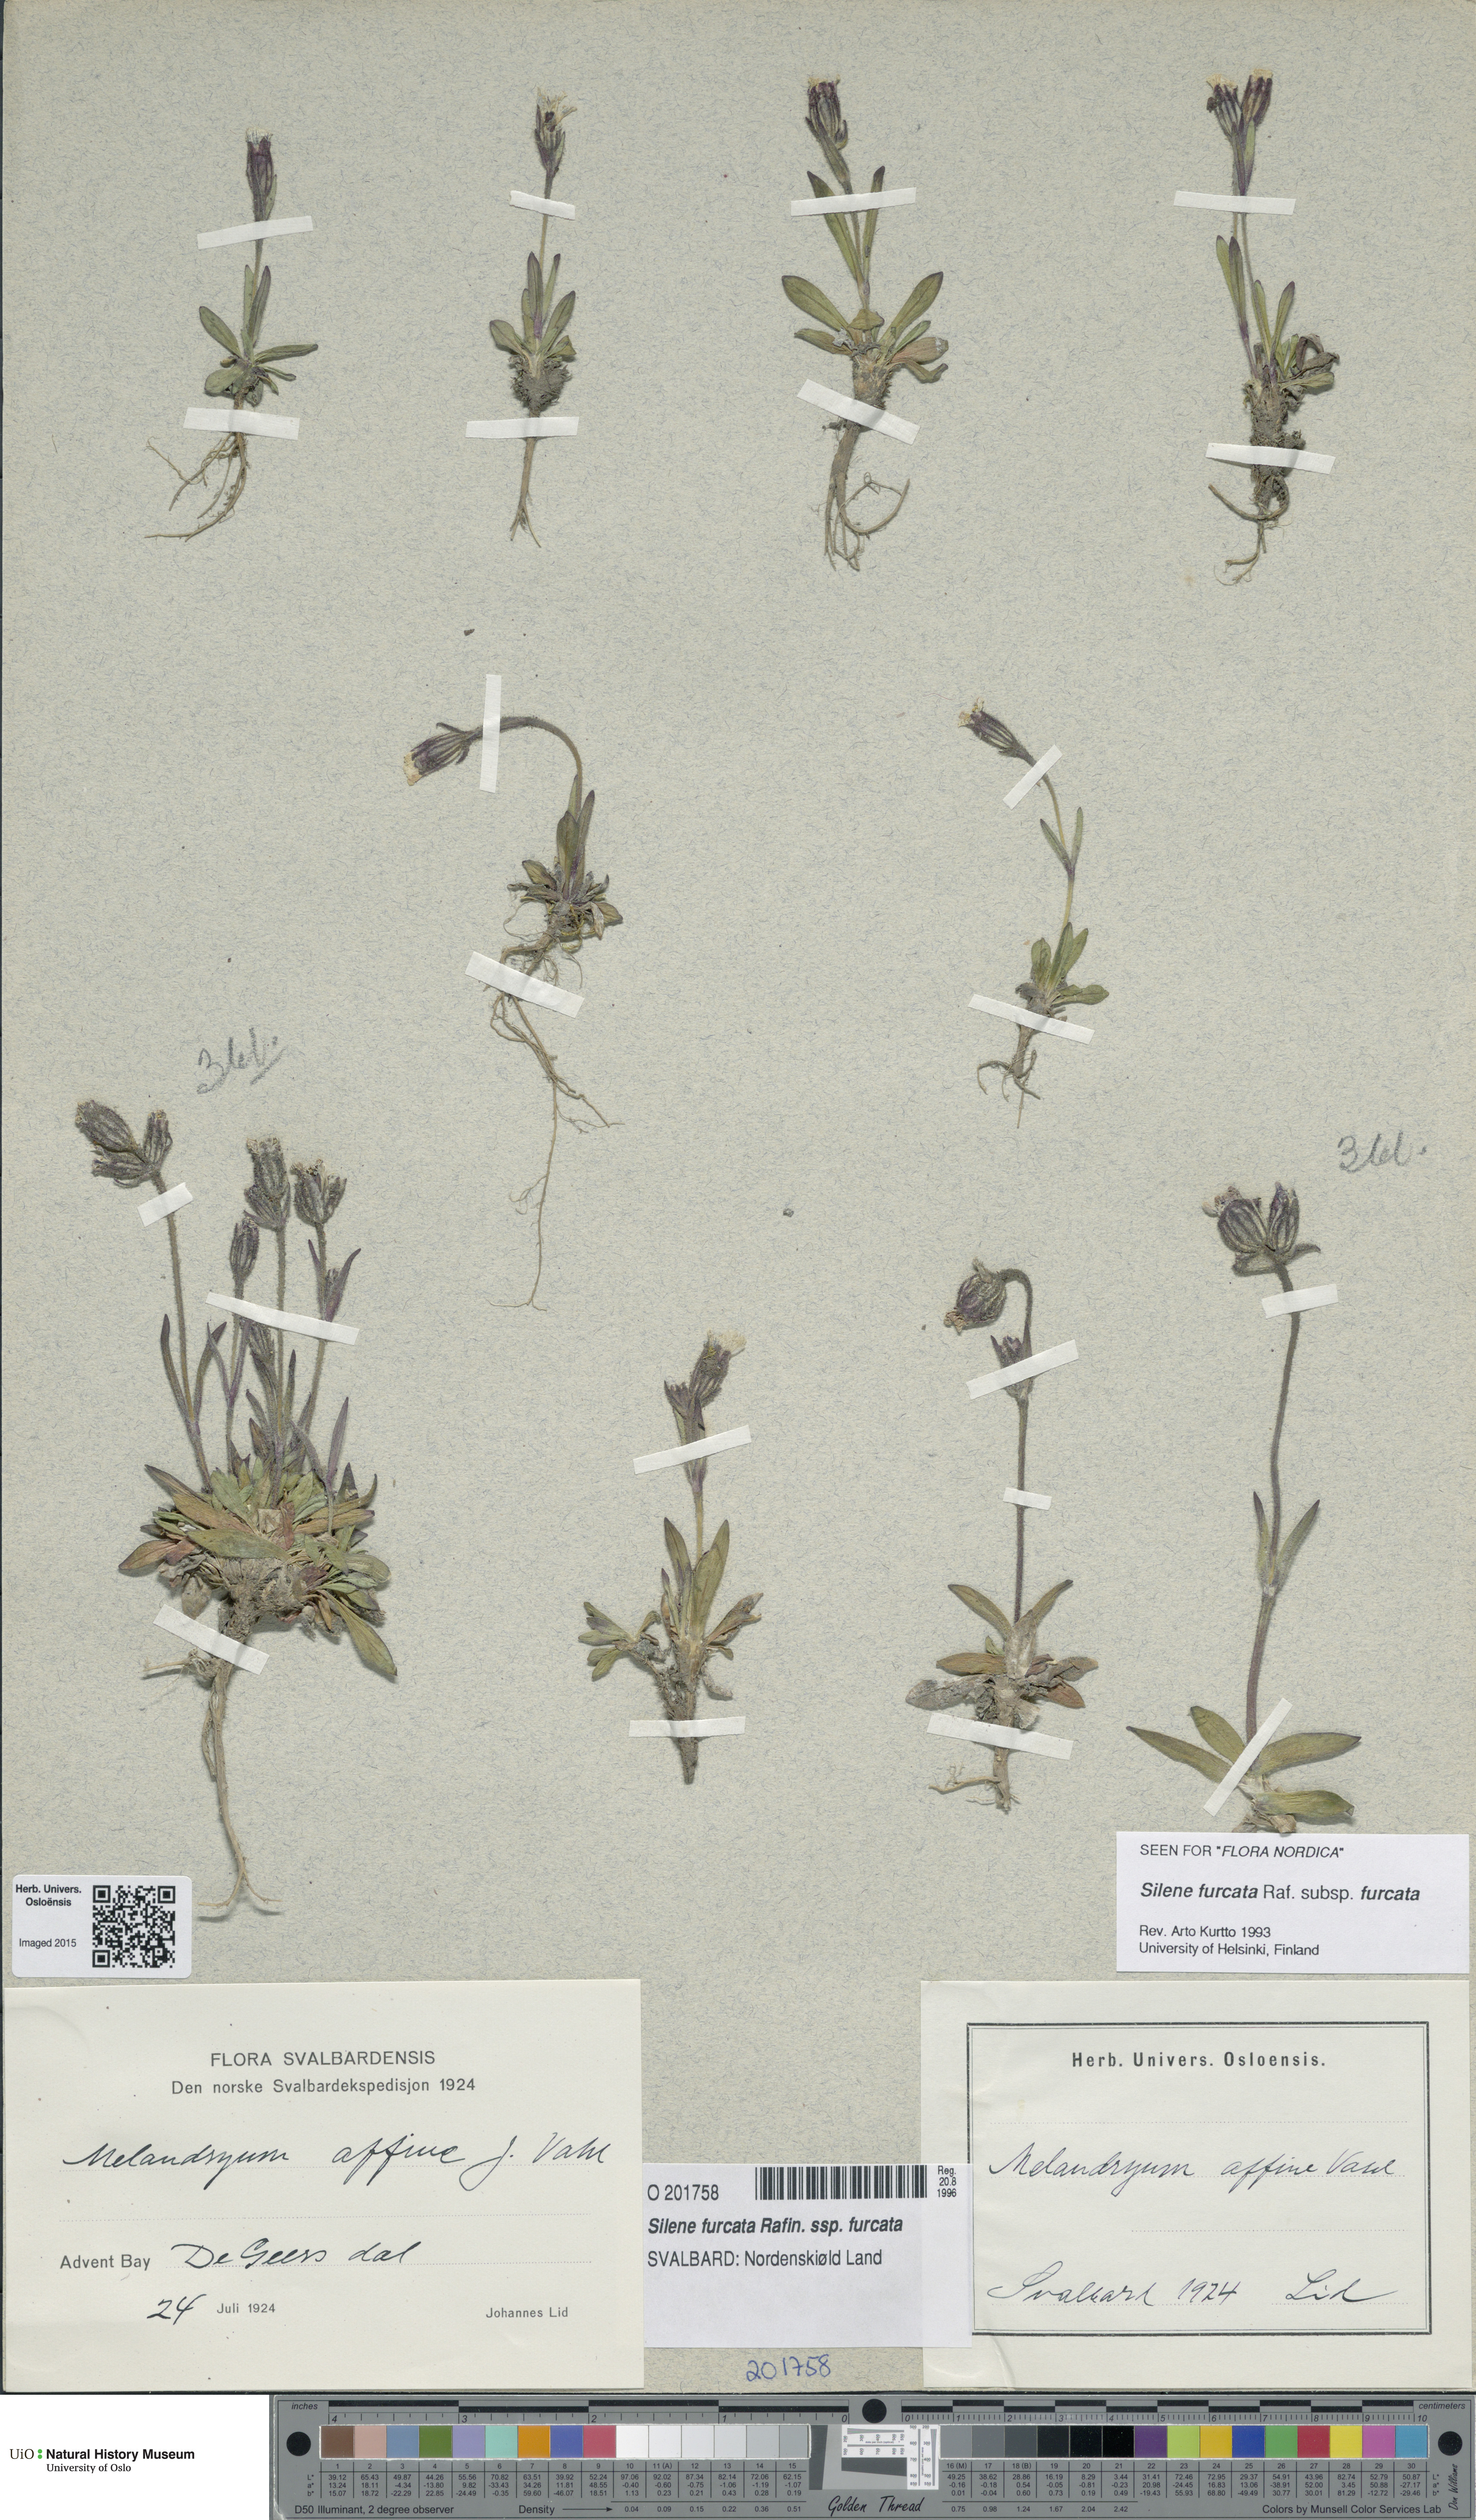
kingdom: Plantae
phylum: Tracheophyta
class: Magnoliopsida
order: Caryophyllales
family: Caryophyllaceae
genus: Silene
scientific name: Silene involucrata
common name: Greater arctic campion
